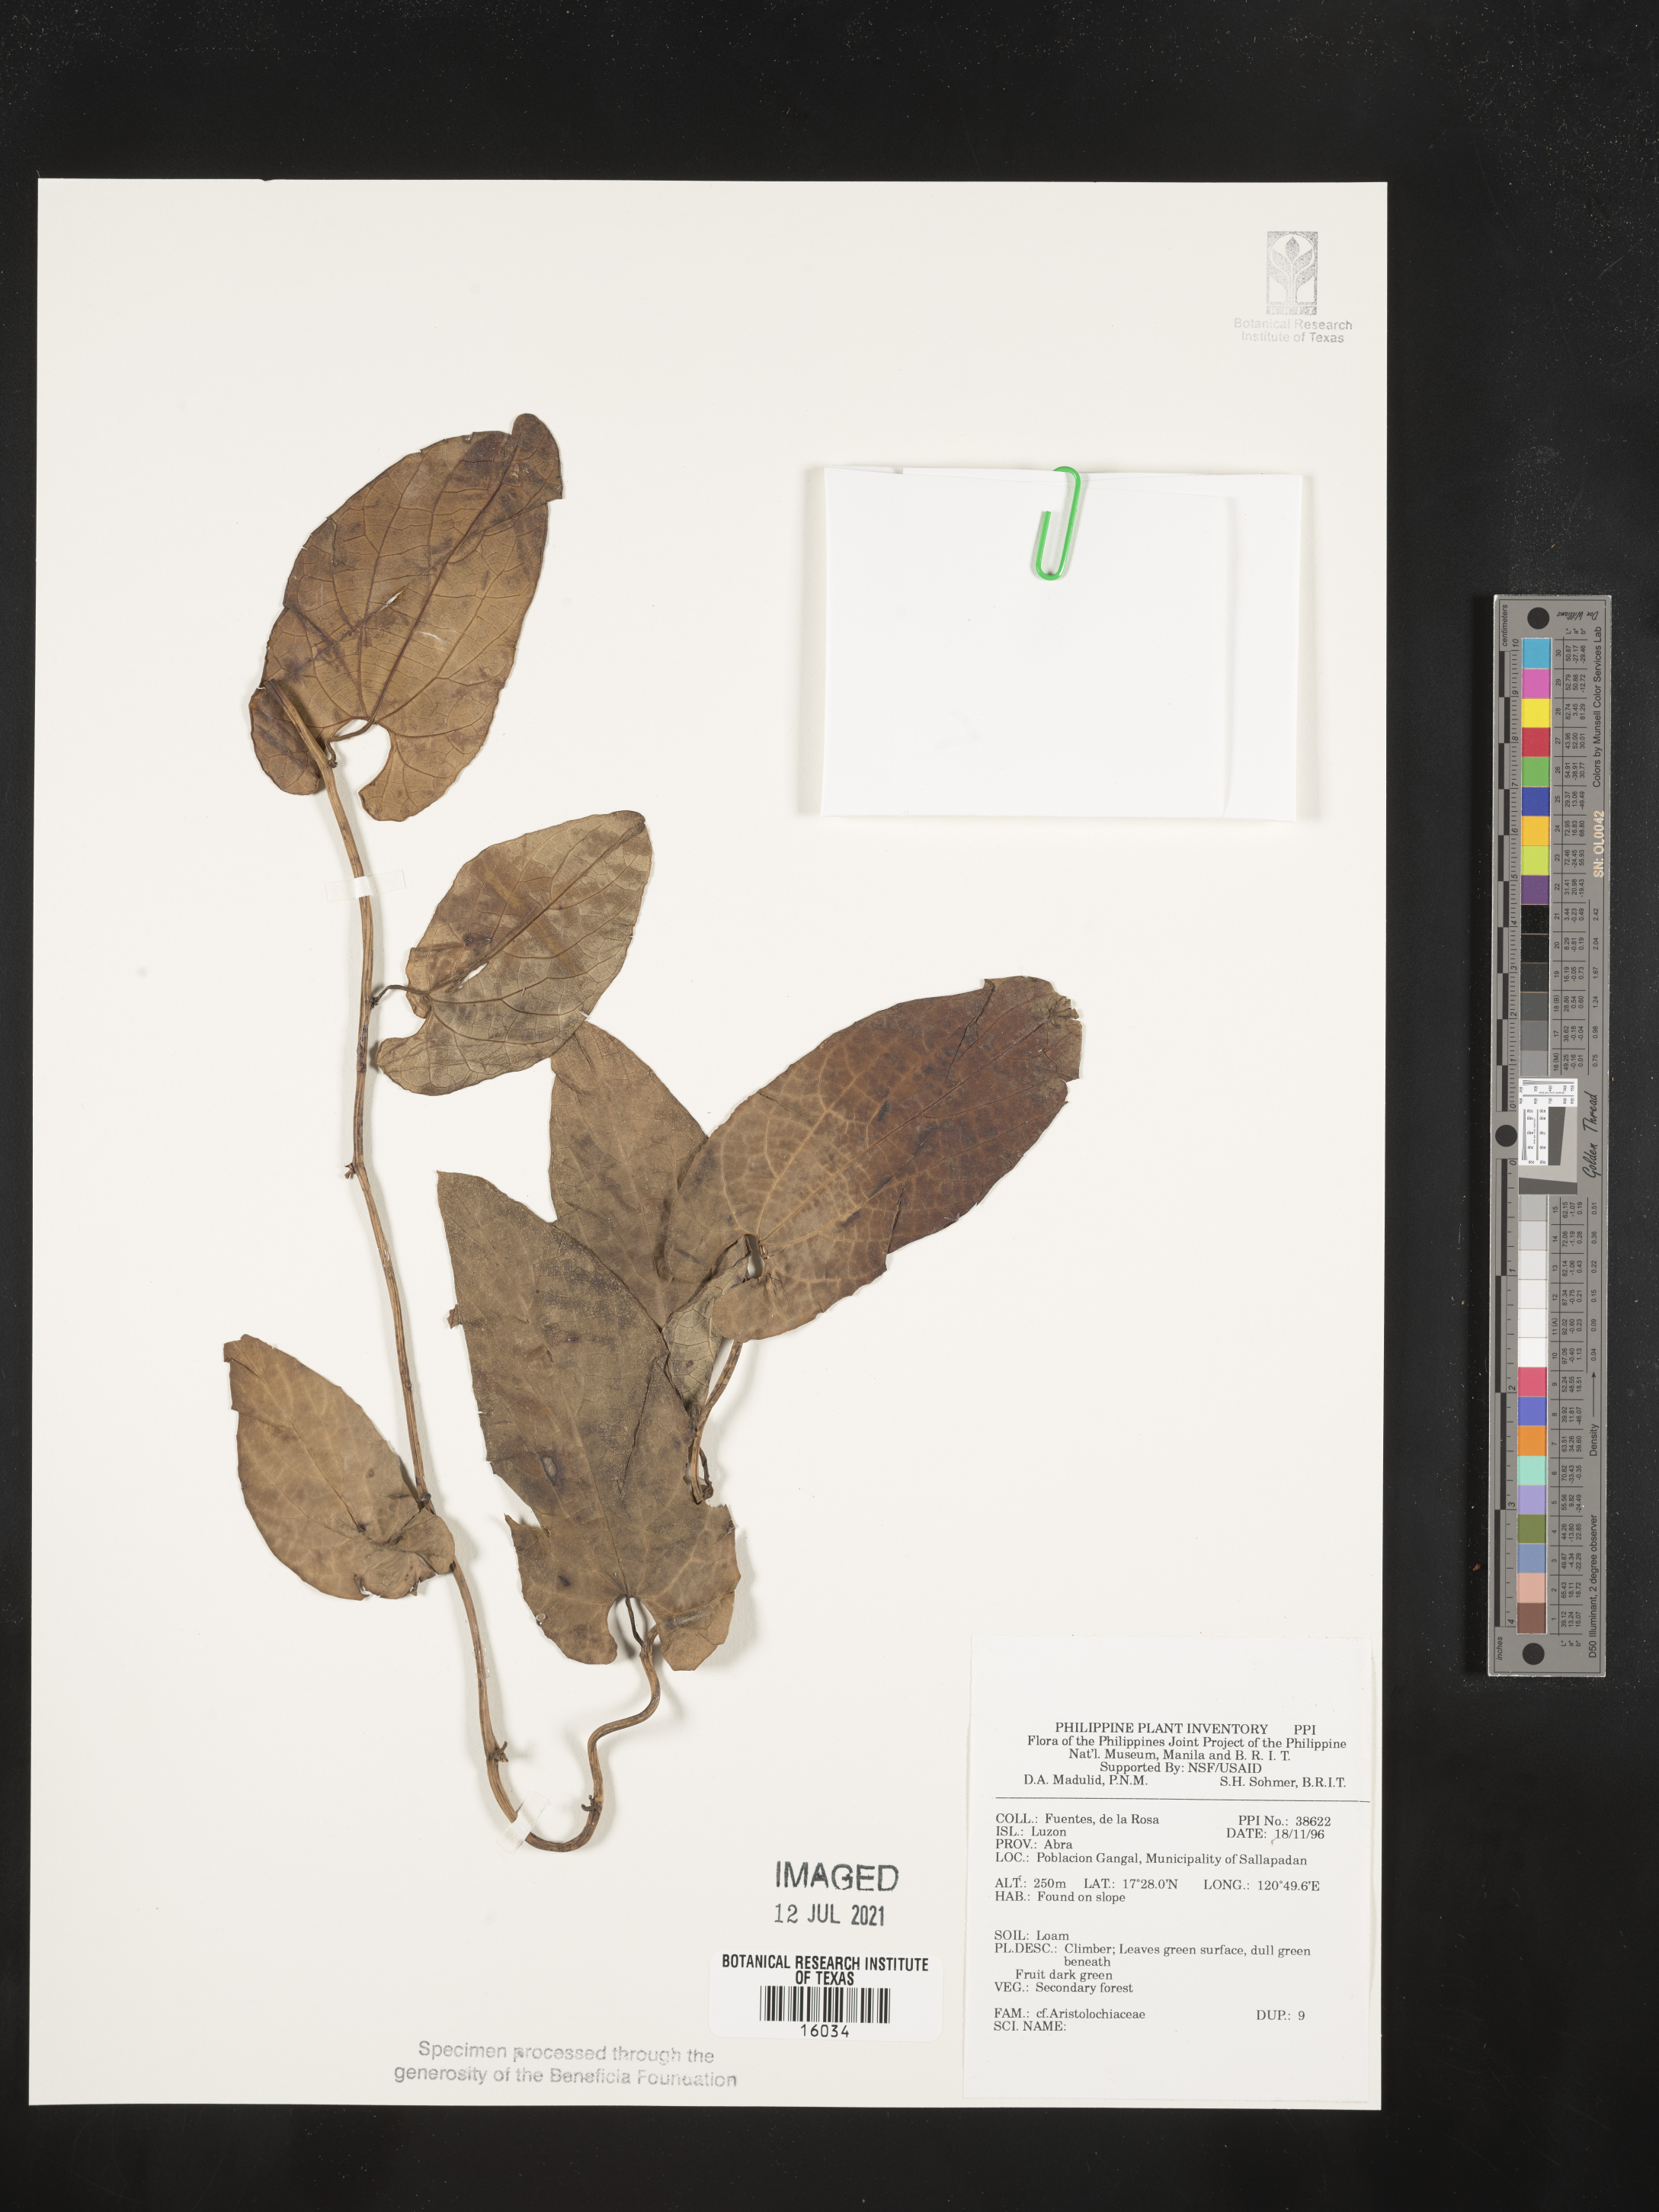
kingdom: Plantae
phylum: Tracheophyta
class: Magnoliopsida
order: Piperales
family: Aristolochiaceae
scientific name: Aristolochiaceae
